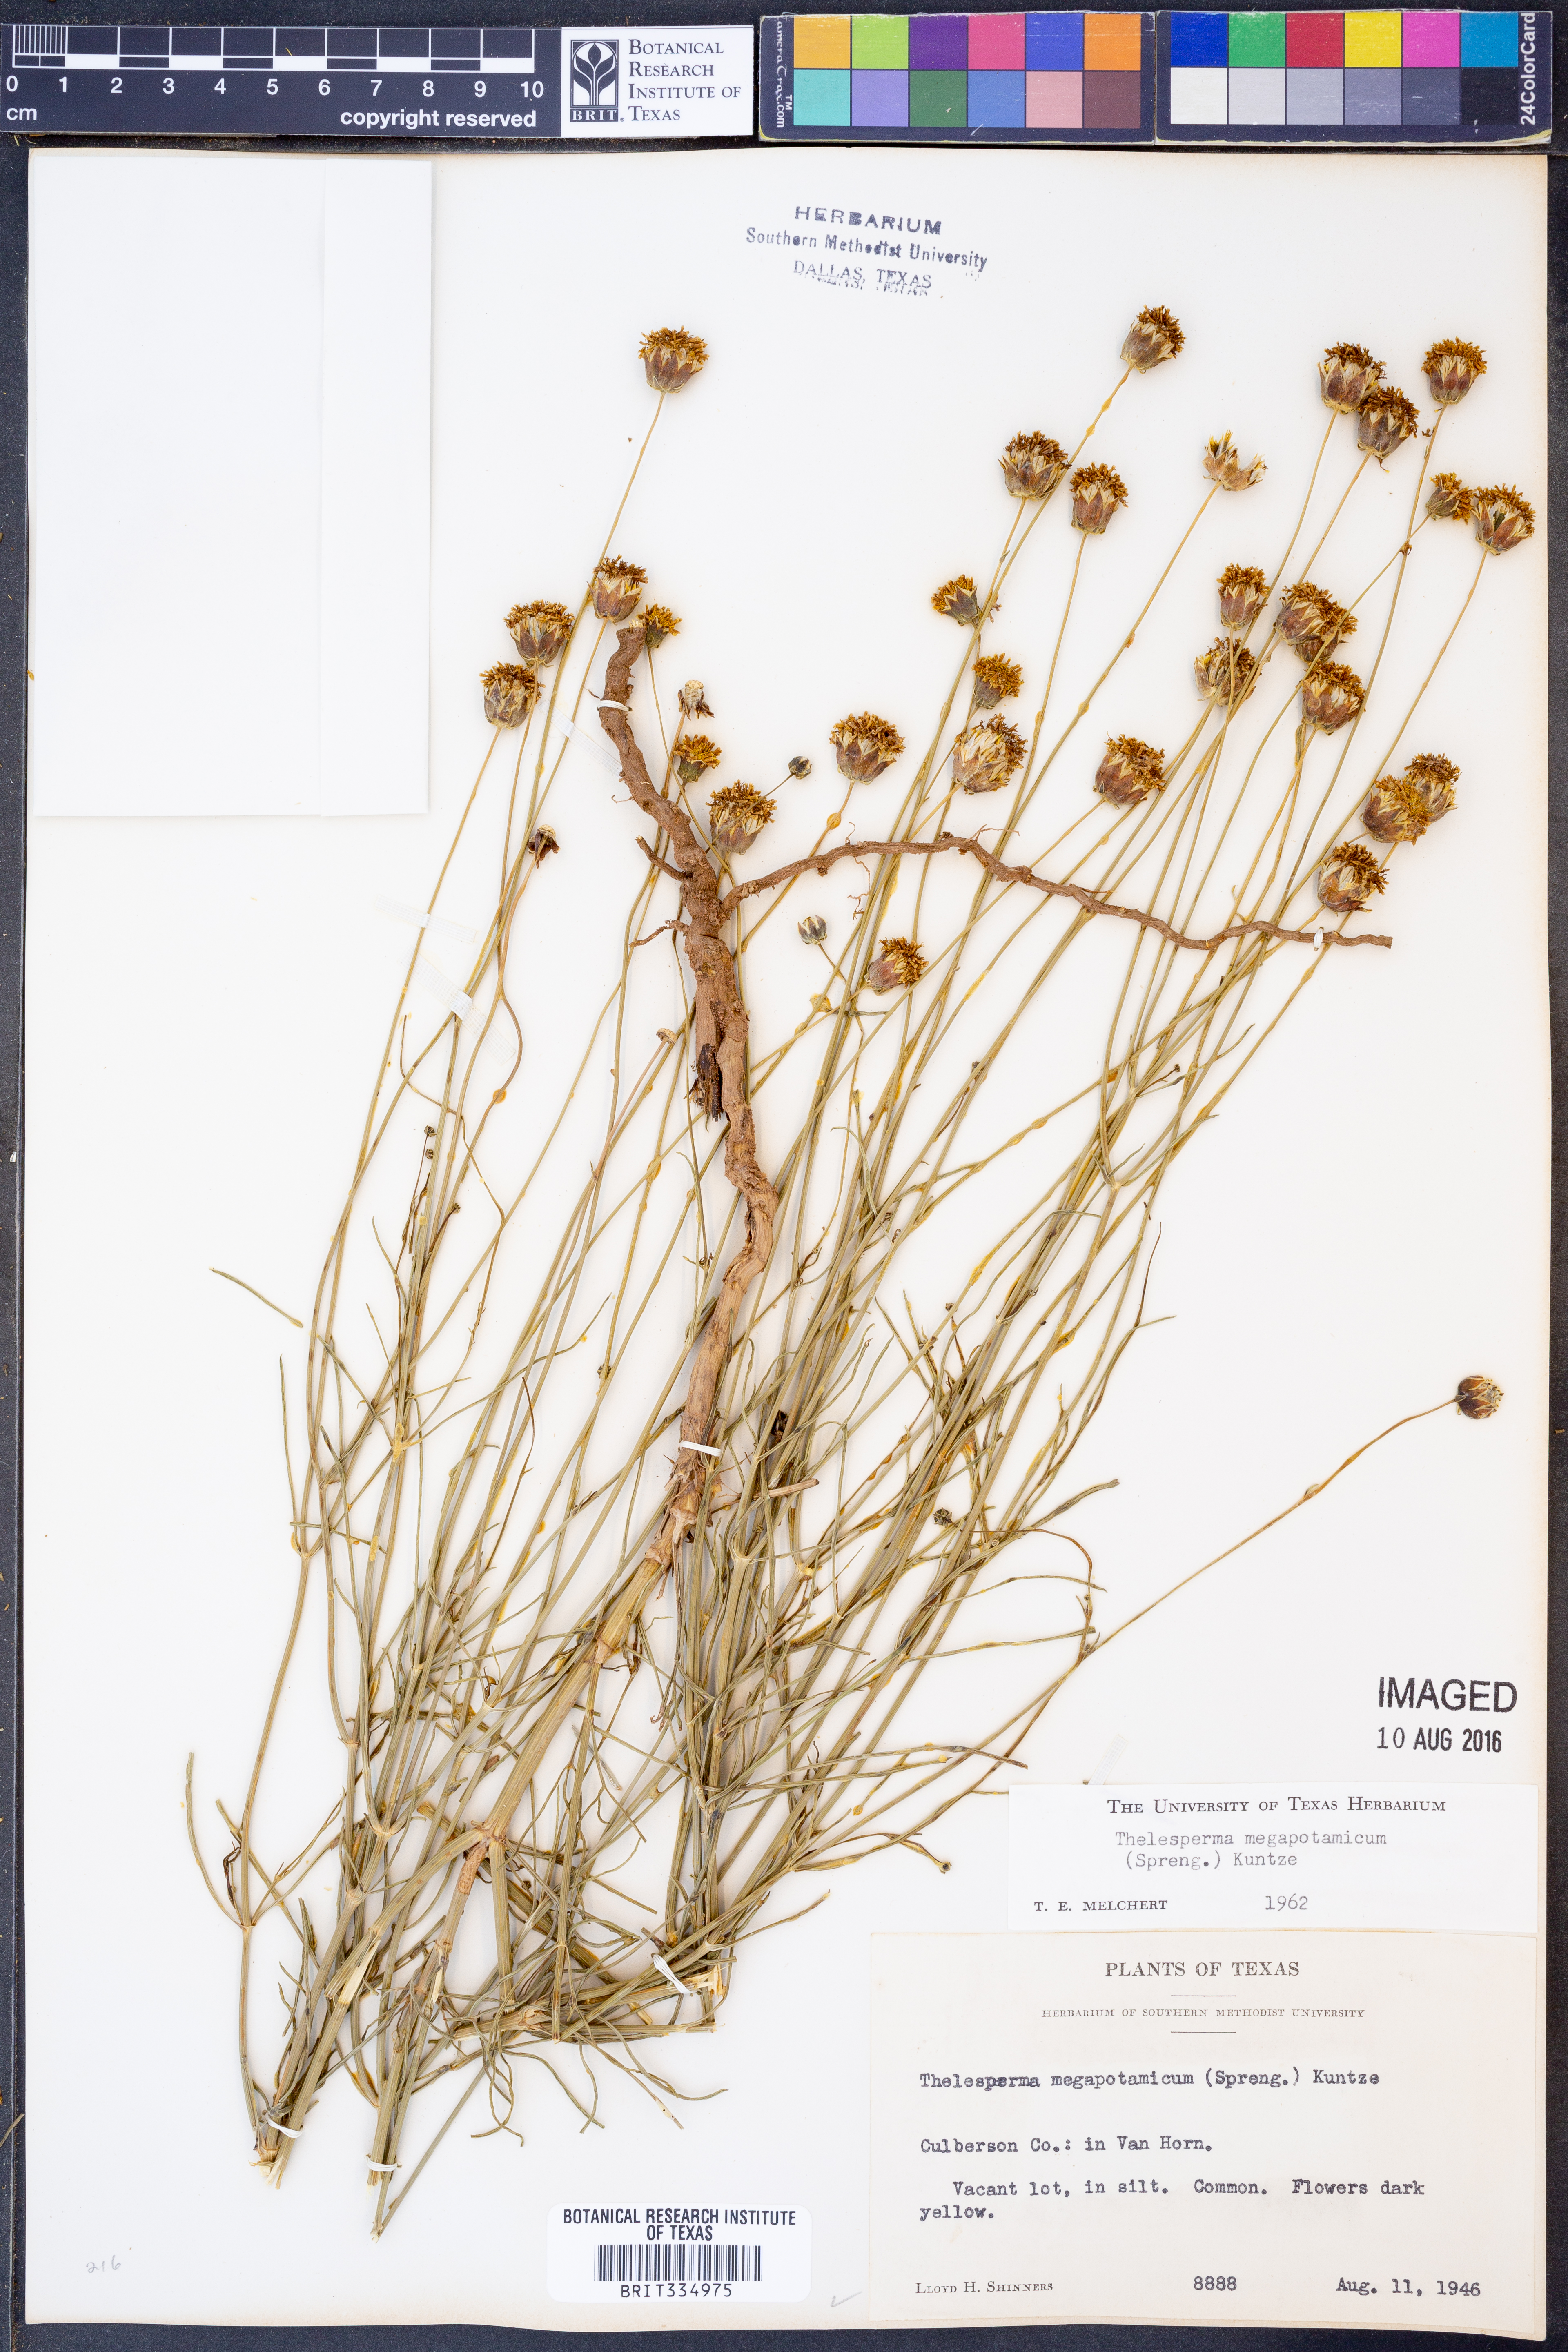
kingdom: Plantae
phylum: Tracheophyta
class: Magnoliopsida
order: Asterales
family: Asteraceae
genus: Thelesperma
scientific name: Thelesperma megapotamicum
